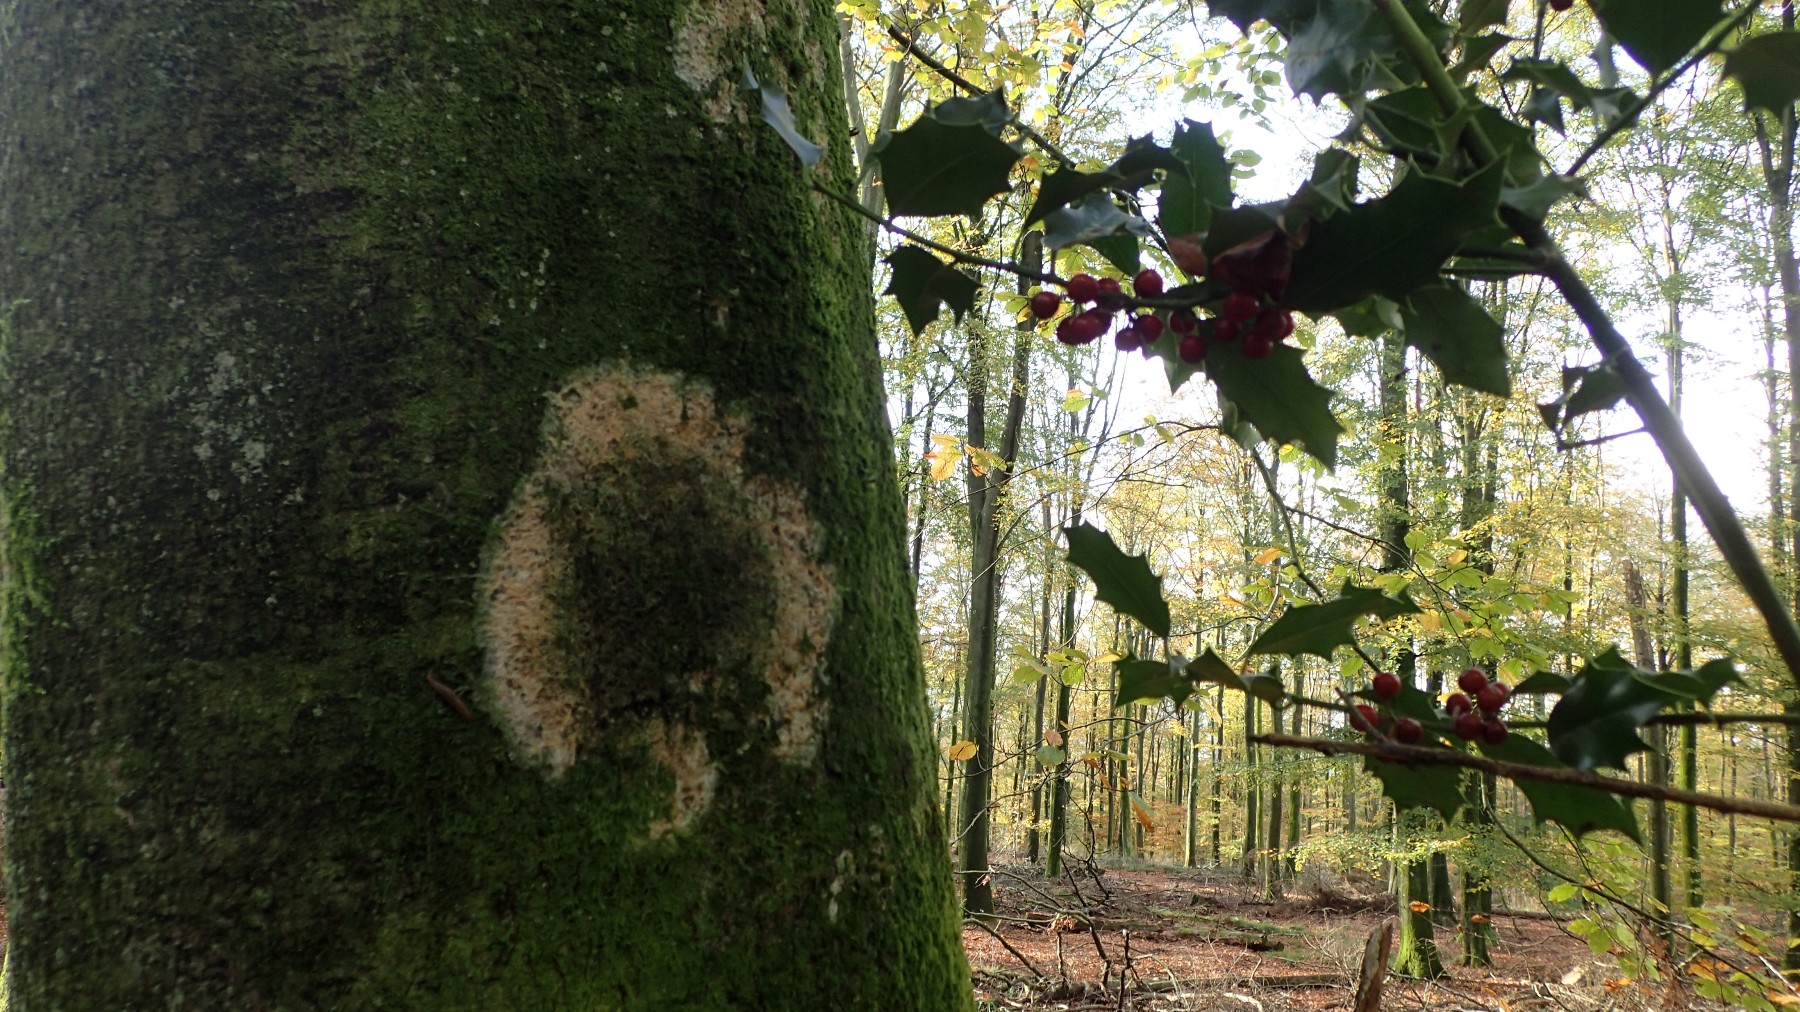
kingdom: Fungi
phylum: Basidiomycota
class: Agaricomycetes
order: Trechisporales
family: Sistotremataceae
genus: Trechispora
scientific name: Trechispora
